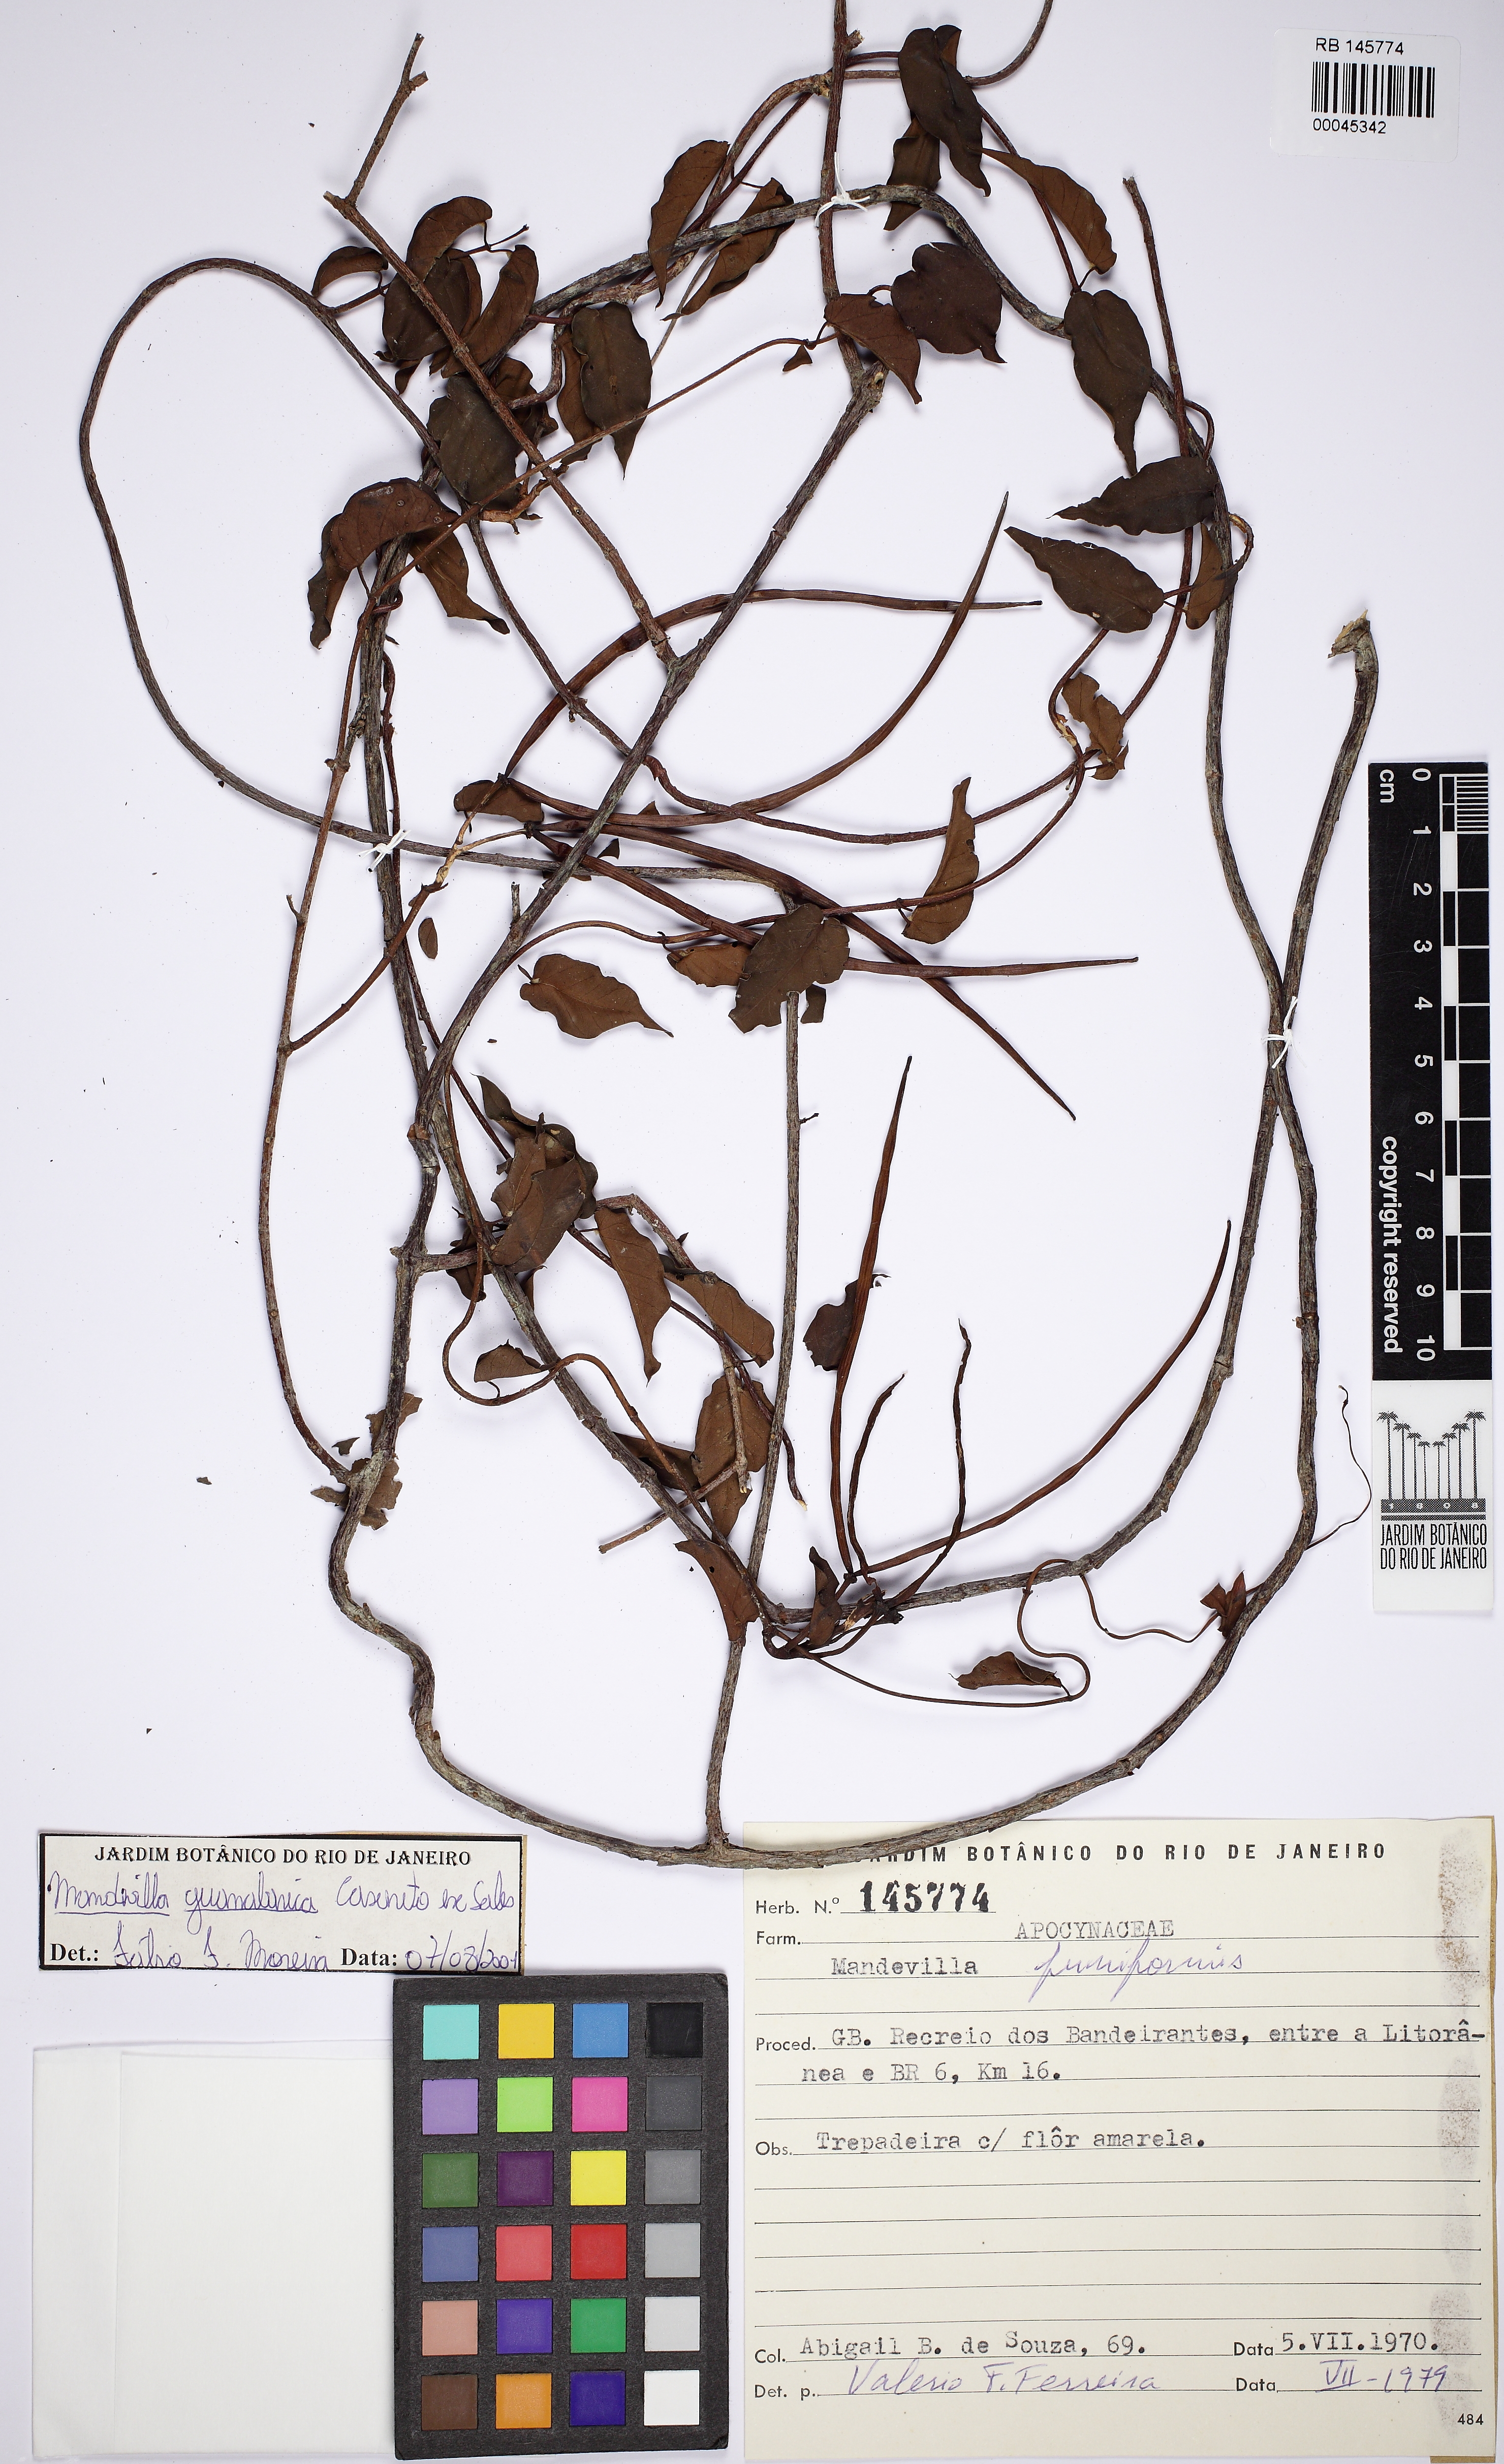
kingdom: Plantae
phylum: Tracheophyta
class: Magnoliopsida
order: Gentianales
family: Apocynaceae
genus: Mandevilla
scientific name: Mandevilla guanabarica
